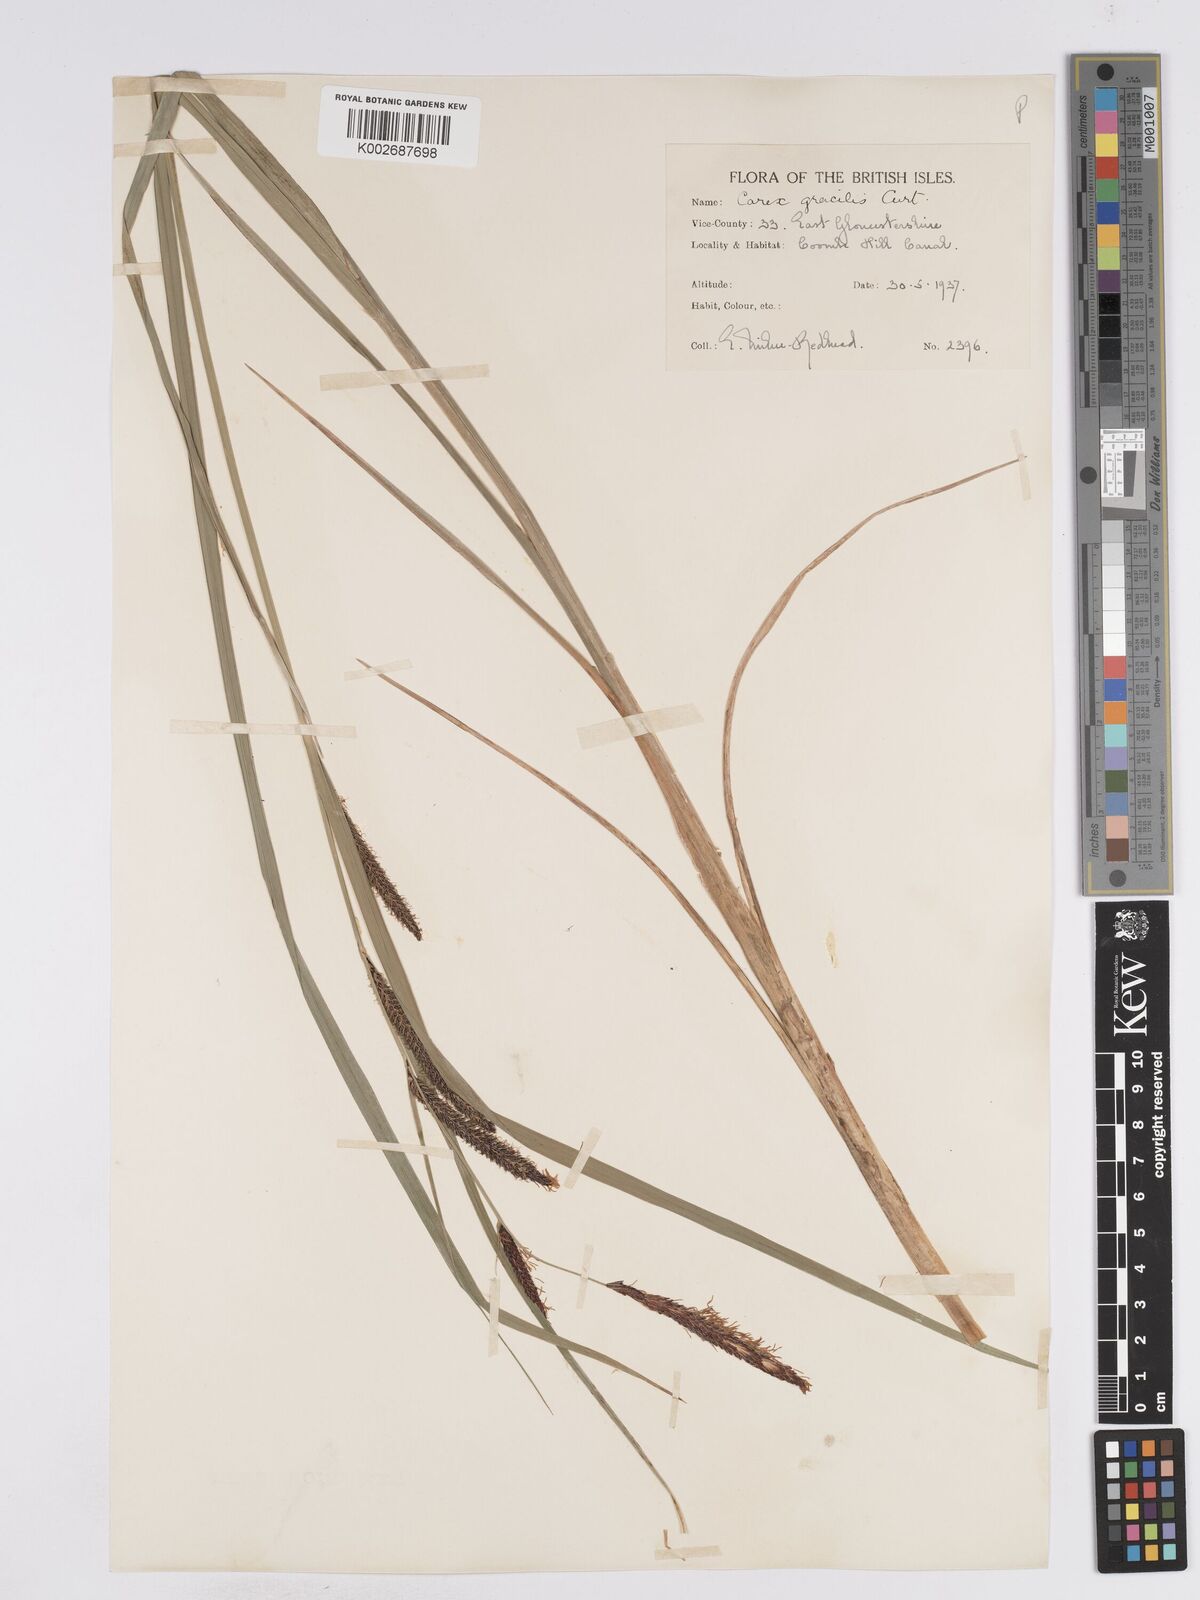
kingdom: Plantae
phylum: Tracheophyta
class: Liliopsida
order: Poales
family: Cyperaceae
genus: Carex
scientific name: Carex acuta
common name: Slender tufted-sedge
